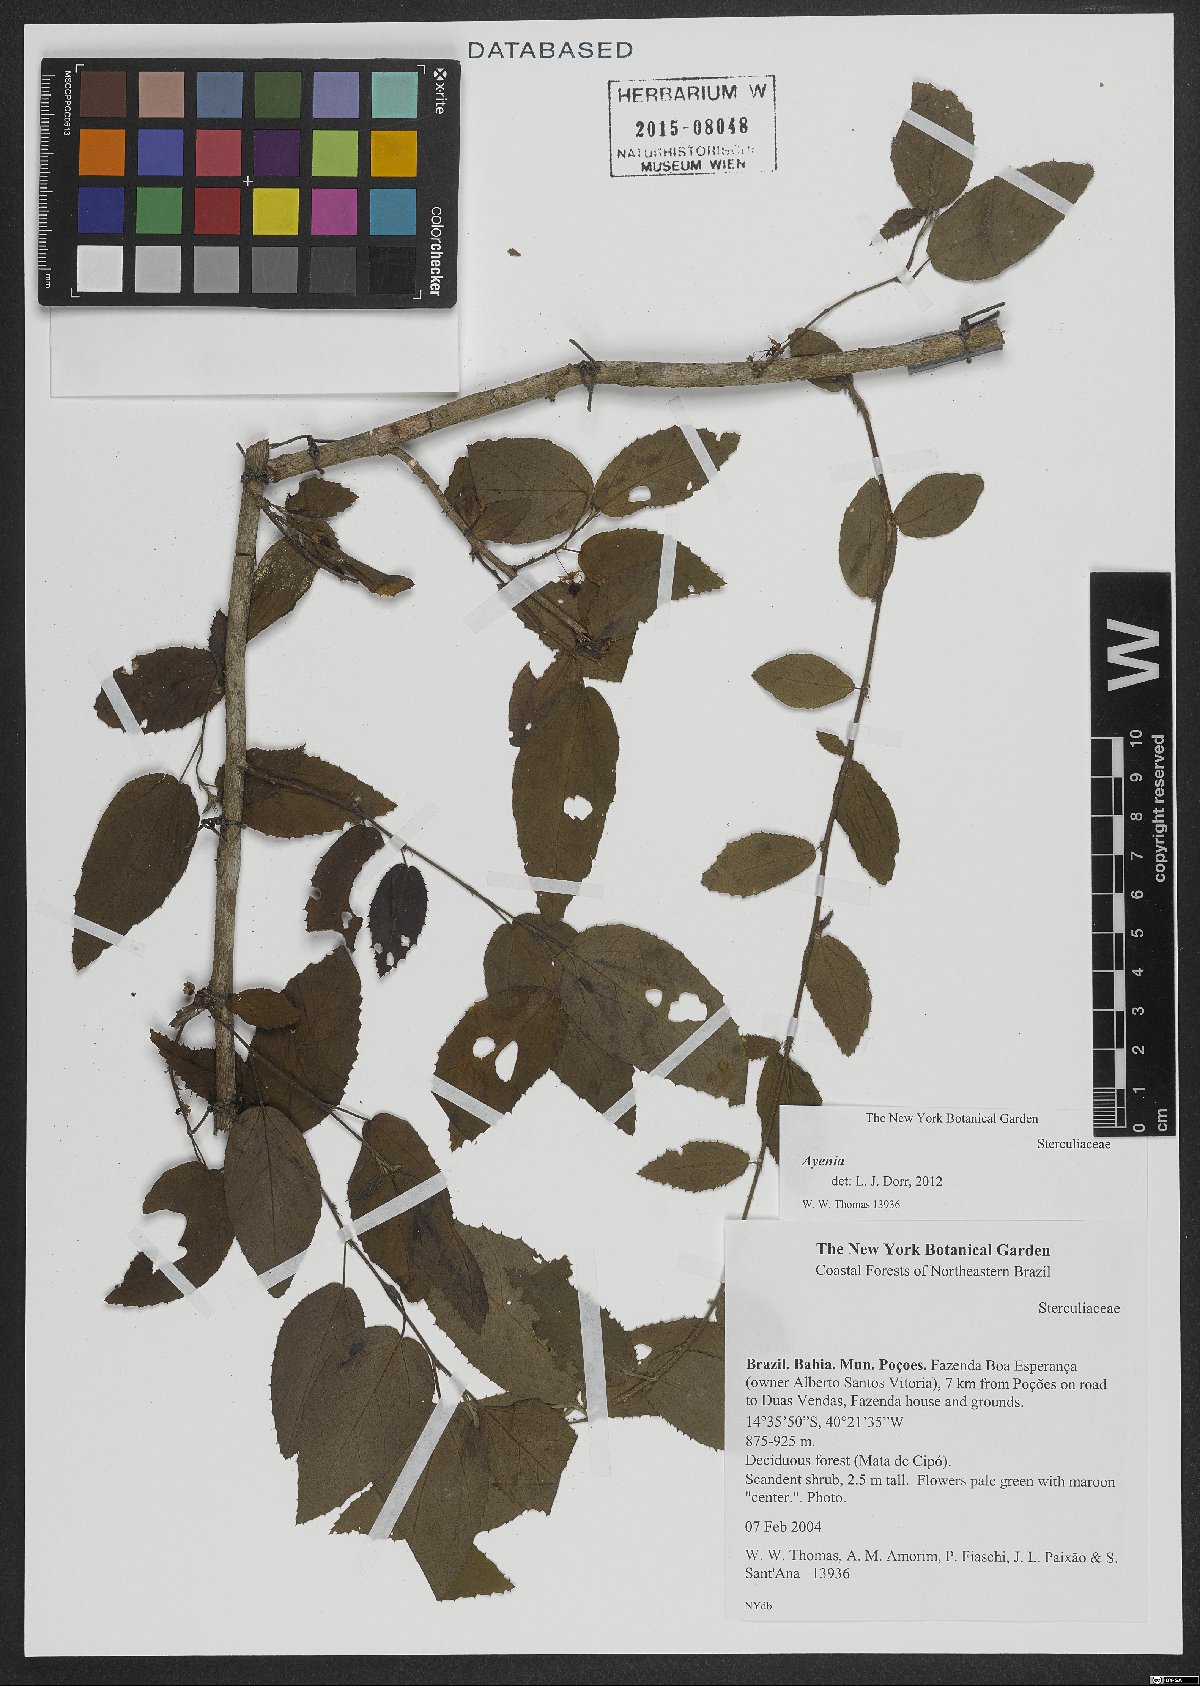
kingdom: Plantae
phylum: Tracheophyta
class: Magnoliopsida
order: Malvales
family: Malvaceae
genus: Ayenia
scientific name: Ayenia
